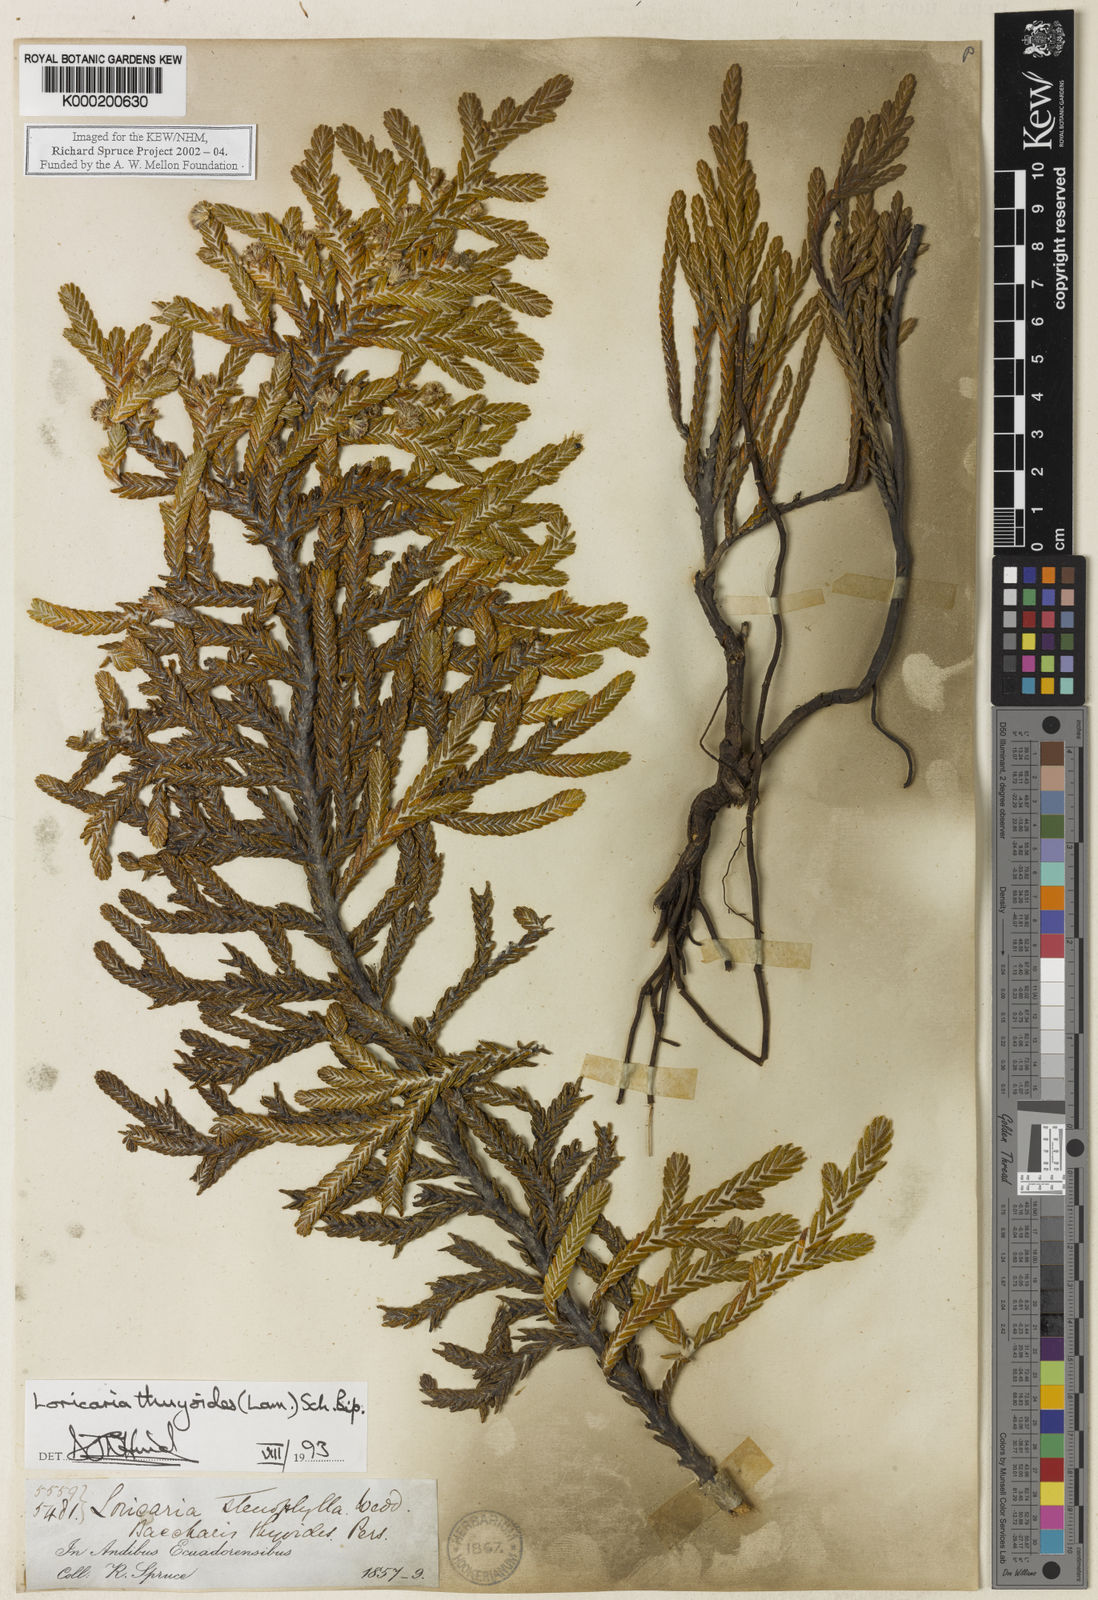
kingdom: Plantae
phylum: Tracheophyta
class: Magnoliopsida
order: Asterales
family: Asteraceae
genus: Andicolea
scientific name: Andicolea thuyoides
